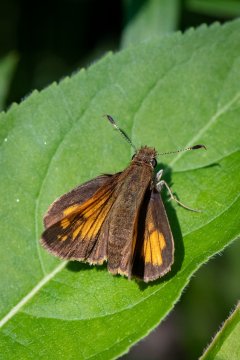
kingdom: Animalia
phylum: Arthropoda
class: Insecta
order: Lepidoptera
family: Hesperiidae
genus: Lon
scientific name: Lon hobomok
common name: Hobomok Skipper
